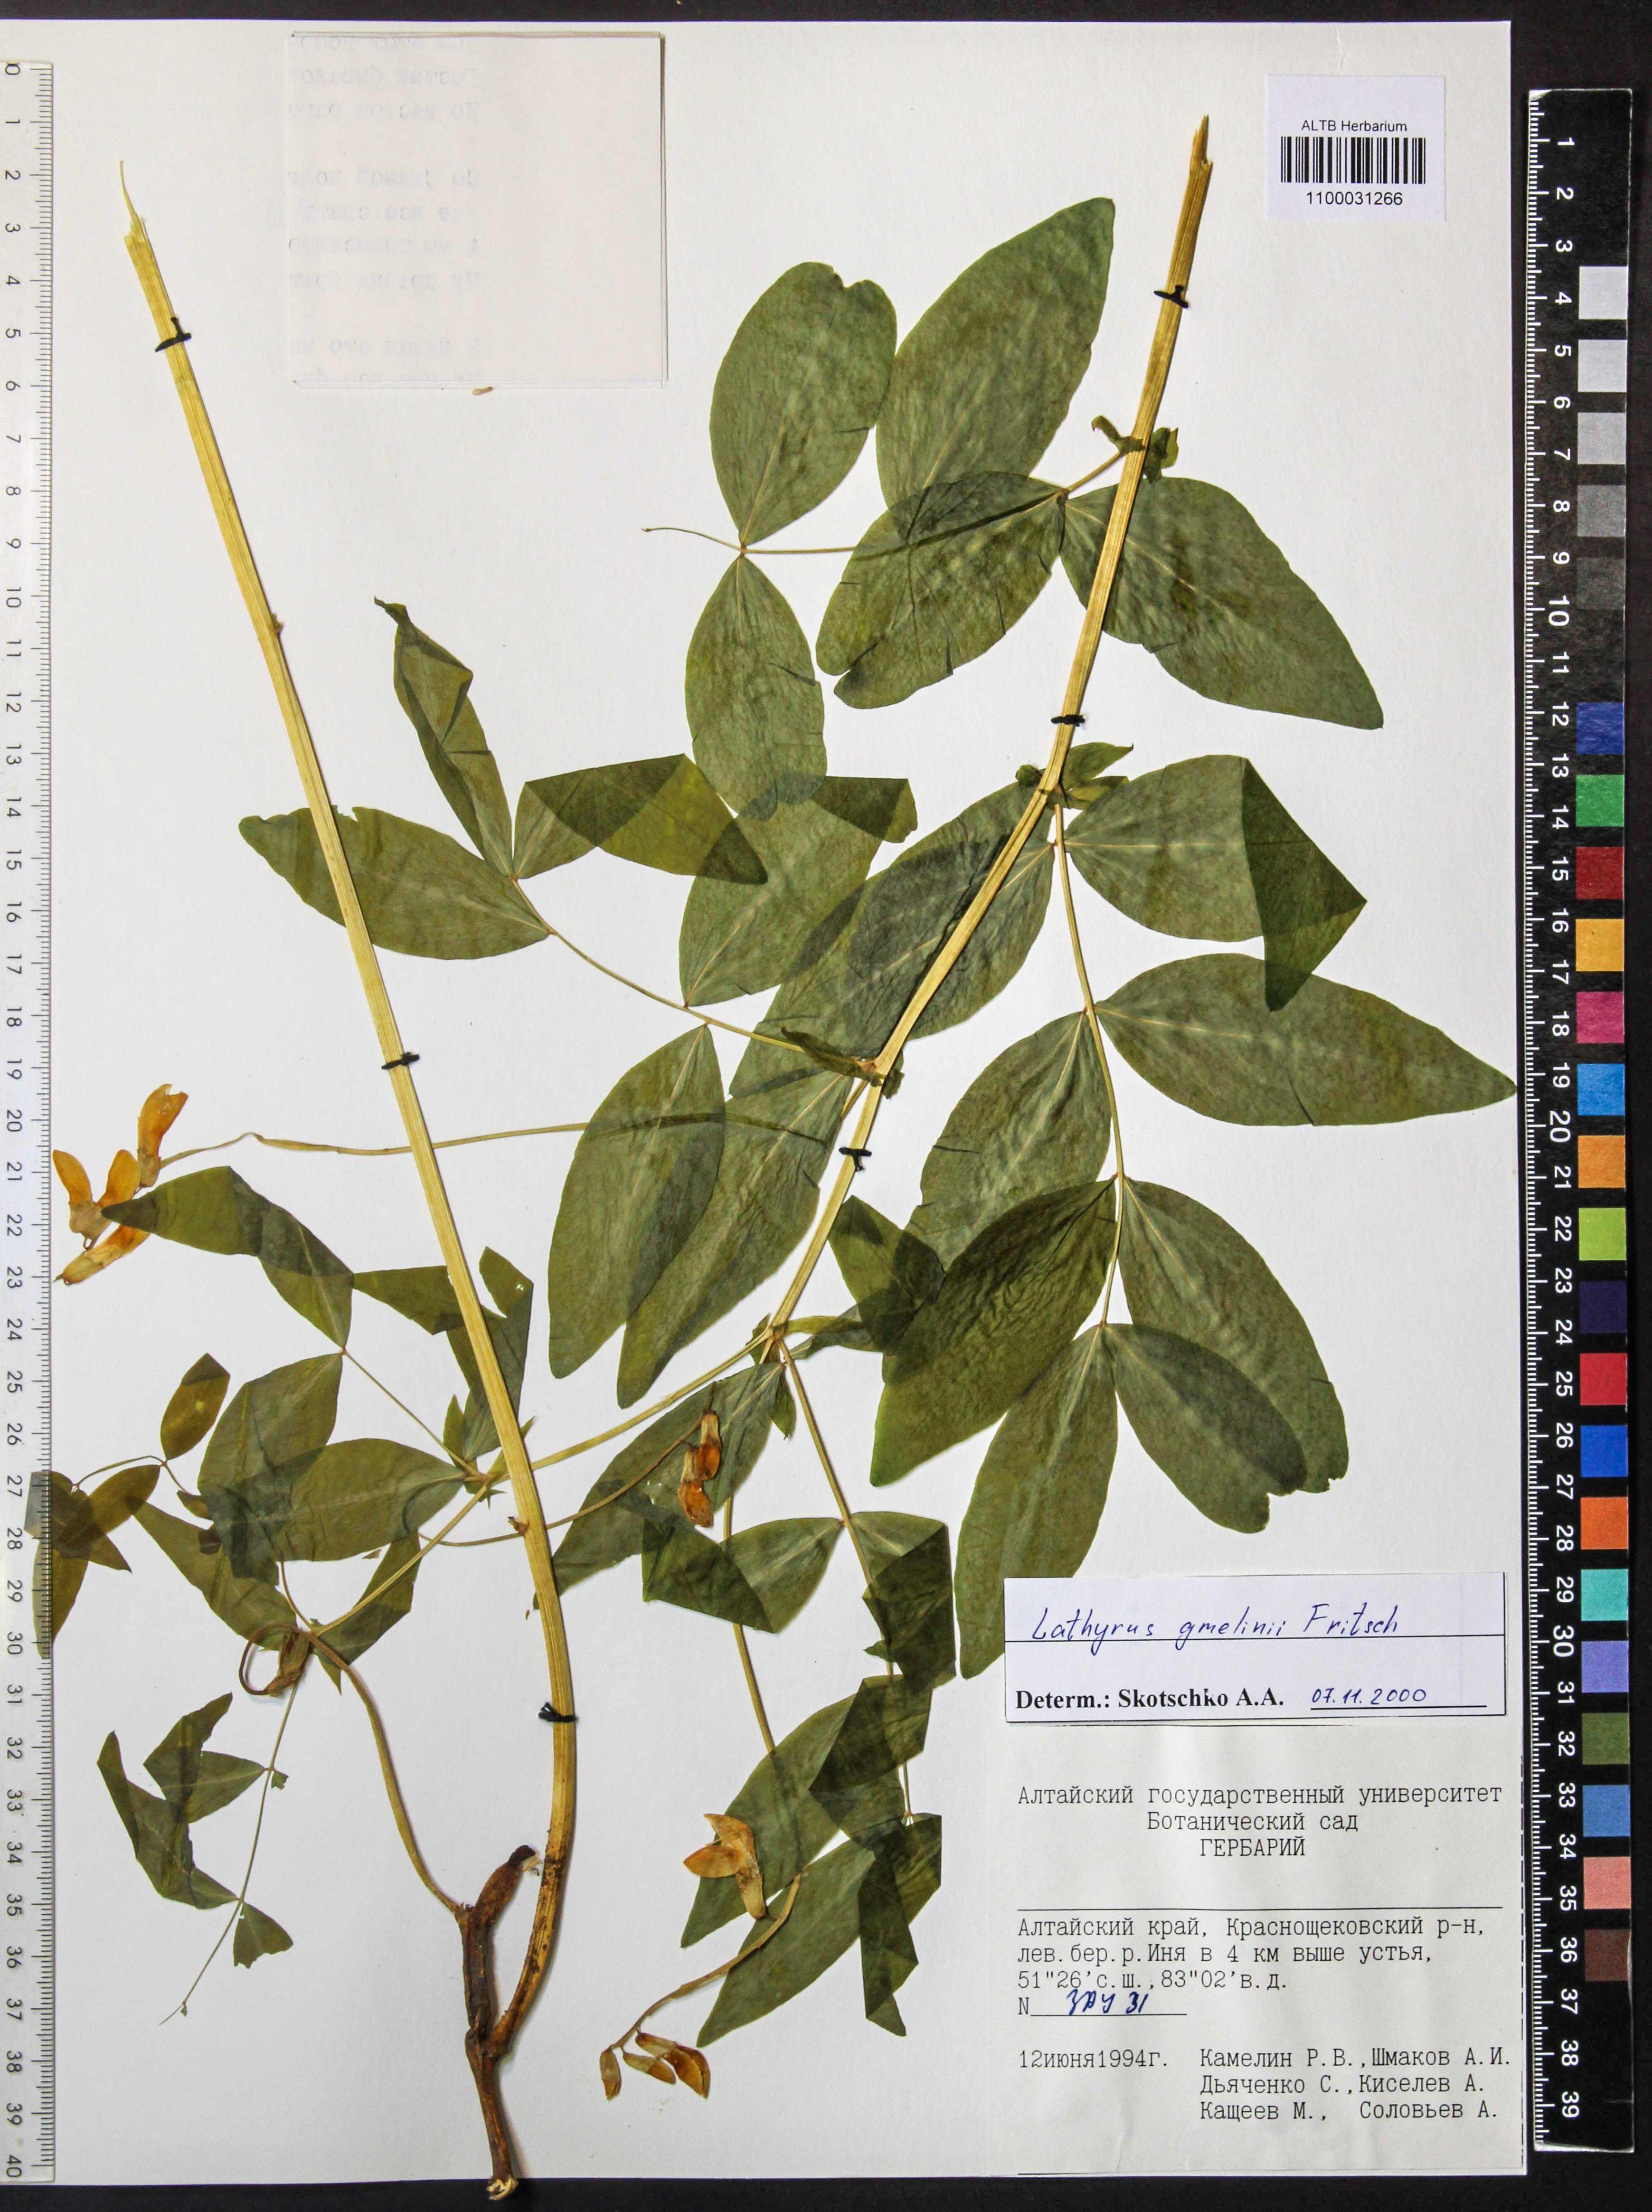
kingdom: Plantae
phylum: Tracheophyta
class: Magnoliopsida
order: Fabales
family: Fabaceae
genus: Lathyrus
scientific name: Lathyrus gmelinii
